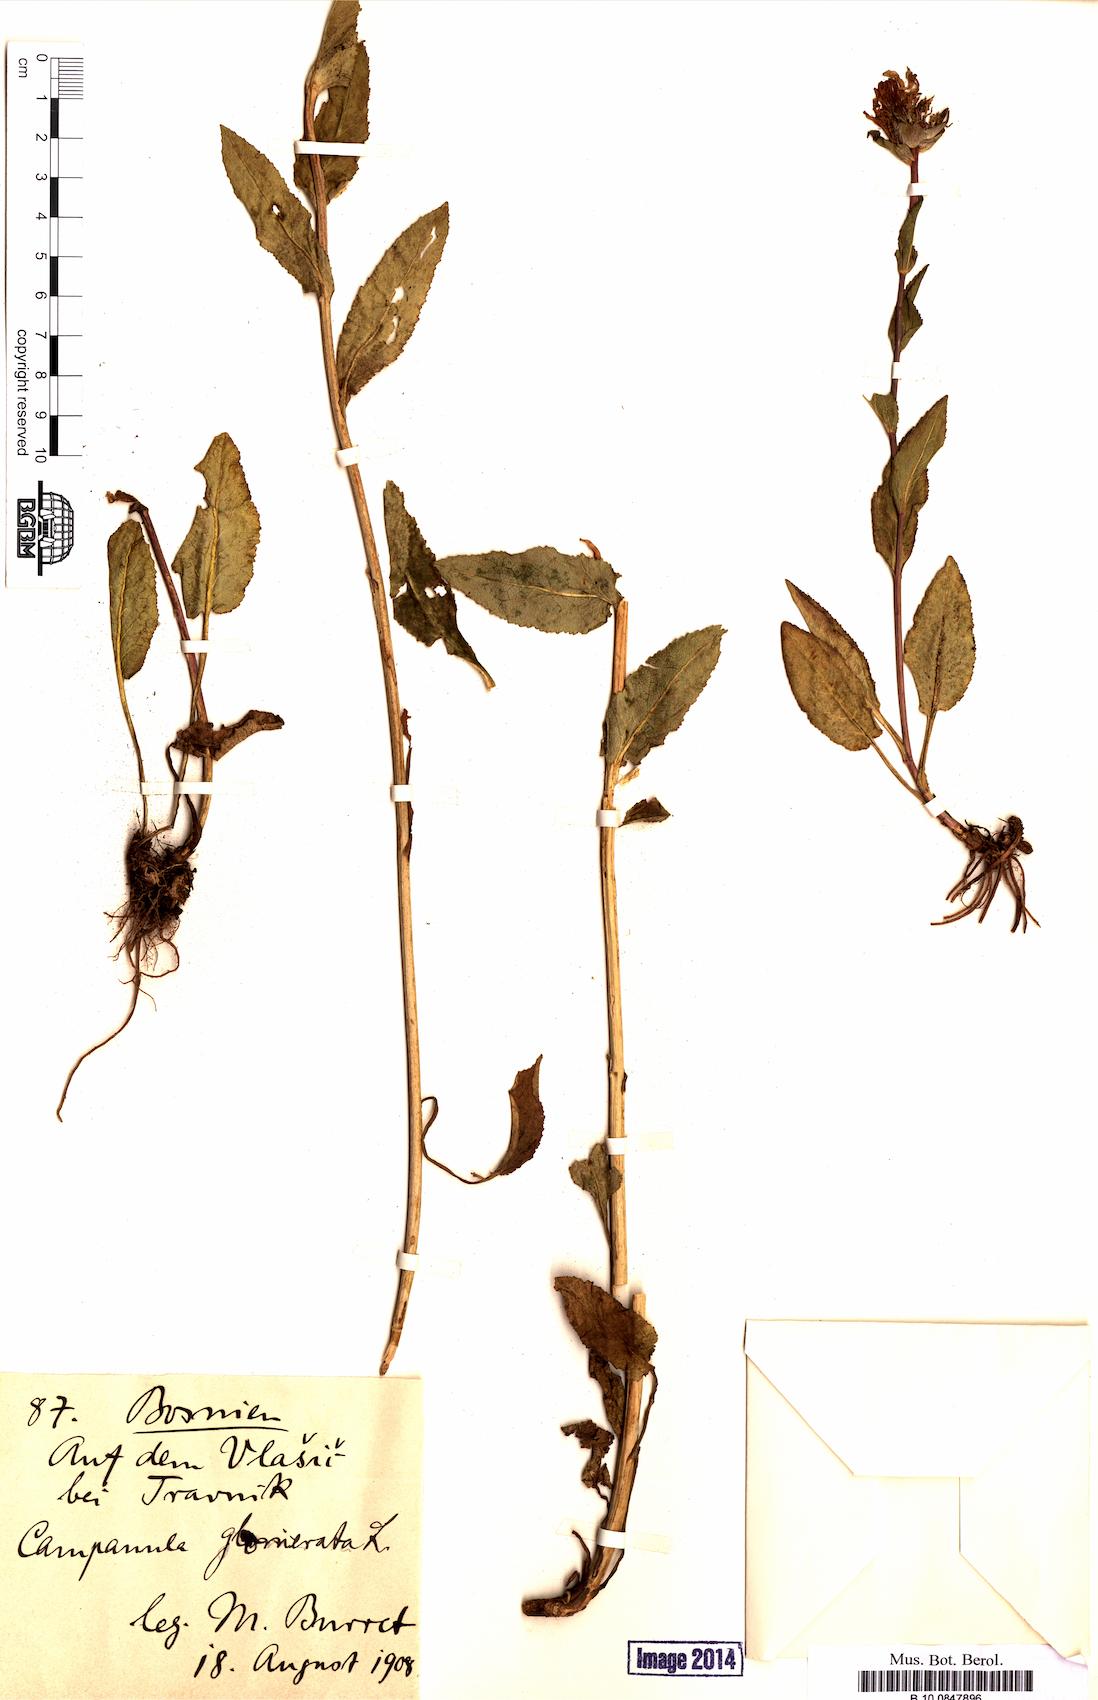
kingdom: Plantae
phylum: Tracheophyta
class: Magnoliopsida
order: Asterales
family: Campanulaceae
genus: Campanula
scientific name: Campanula glomerata
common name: Clustered bellflower
